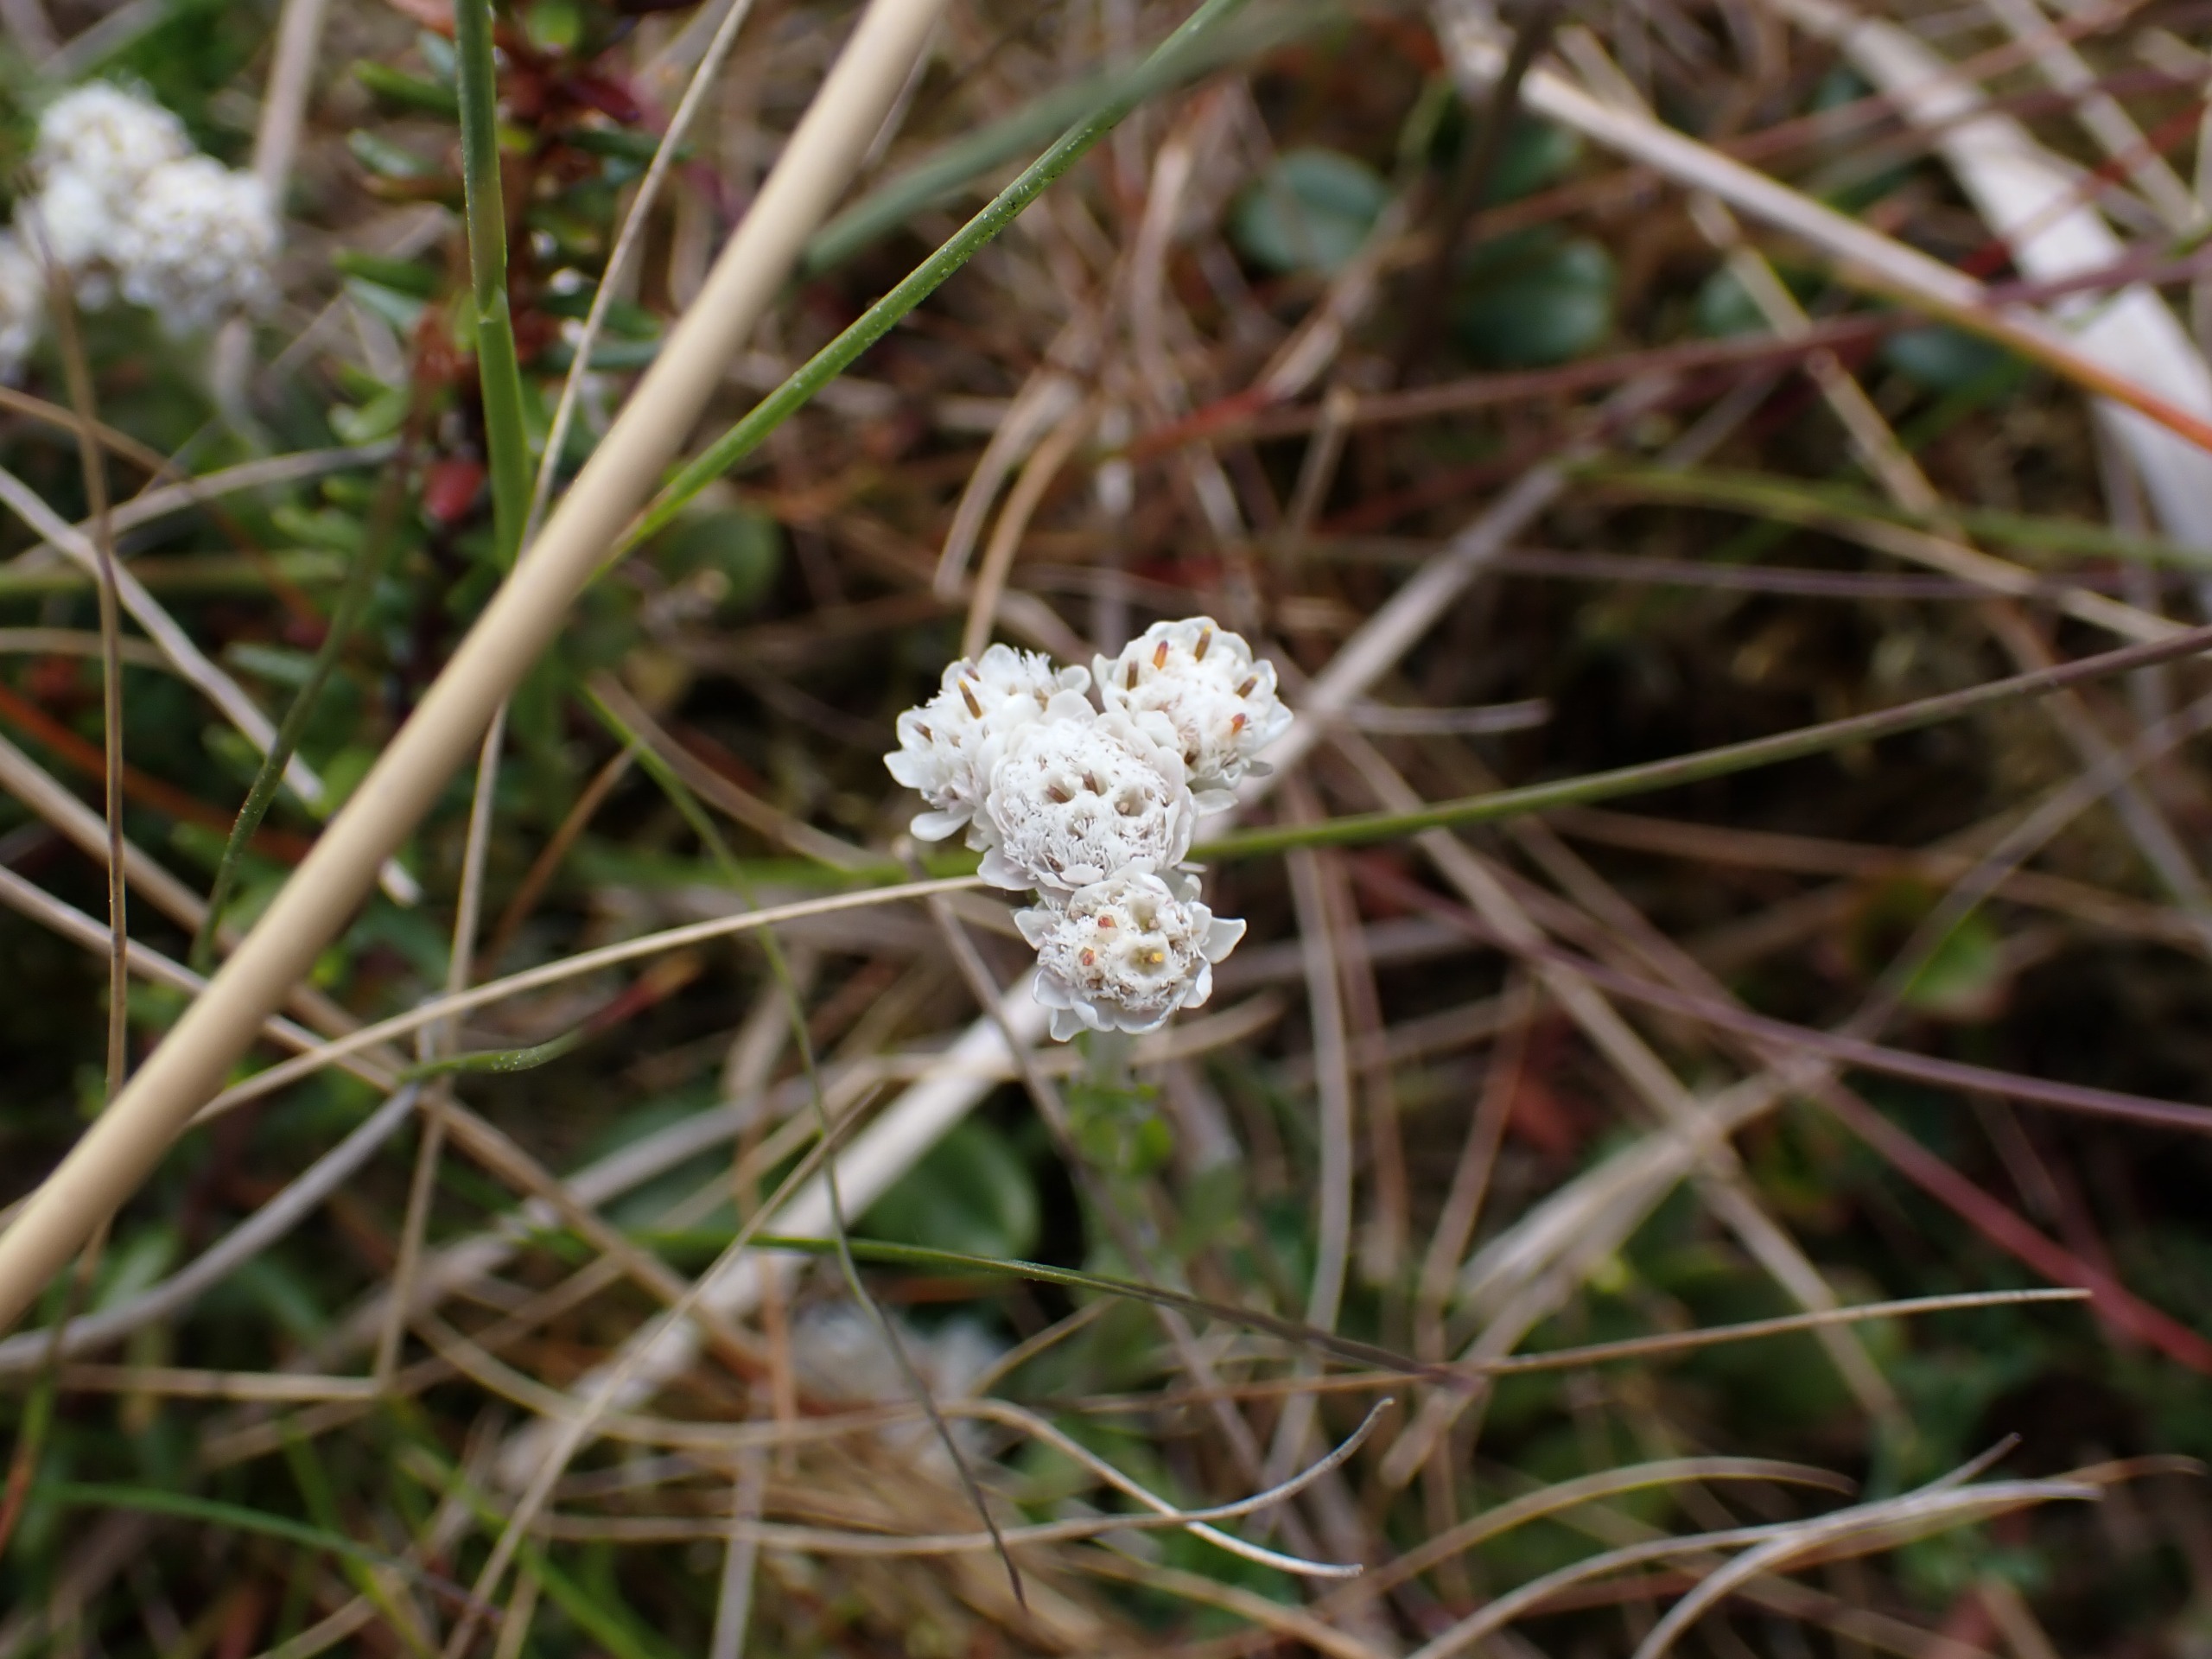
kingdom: Plantae
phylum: Tracheophyta
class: Magnoliopsida
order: Asterales
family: Asteraceae
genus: Antennaria
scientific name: Antennaria dioica
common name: Kattefod
